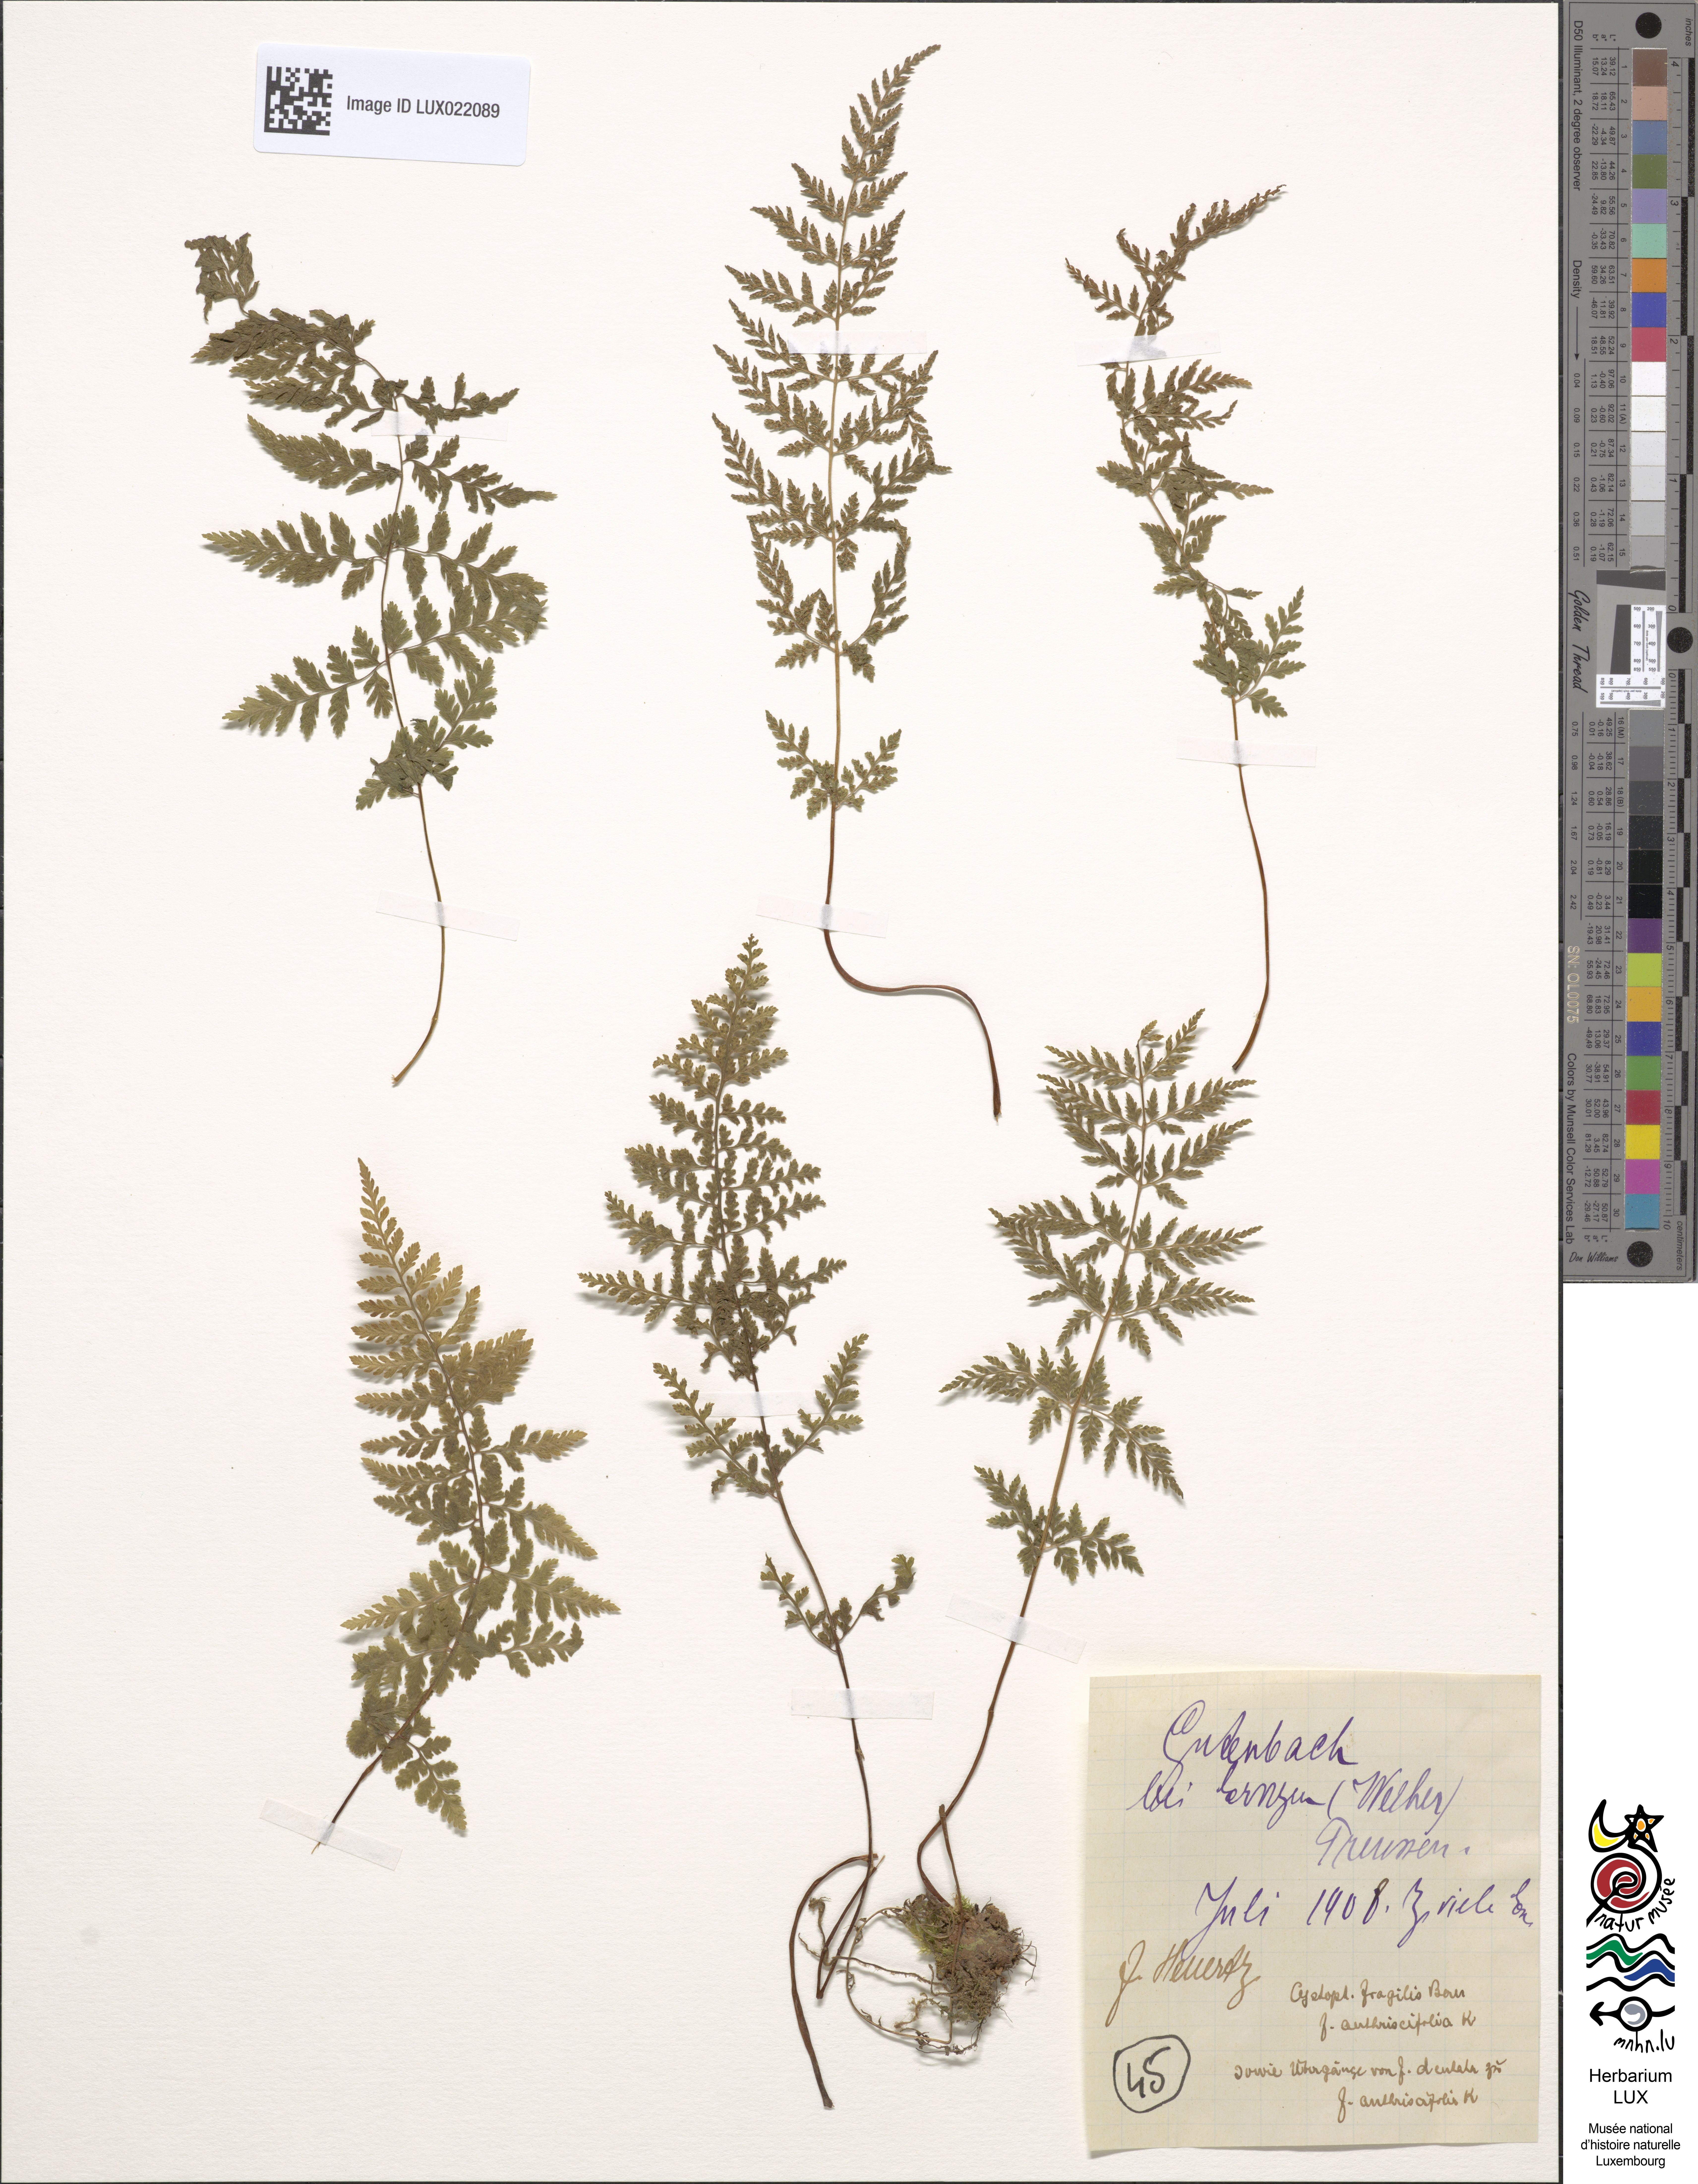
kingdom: Plantae
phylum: Tracheophyta
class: Polypodiopsida
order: Polypodiales
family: Cystopteridaceae
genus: Cystopteris
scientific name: Cystopteris fragilis
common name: Brittle bladder fern
